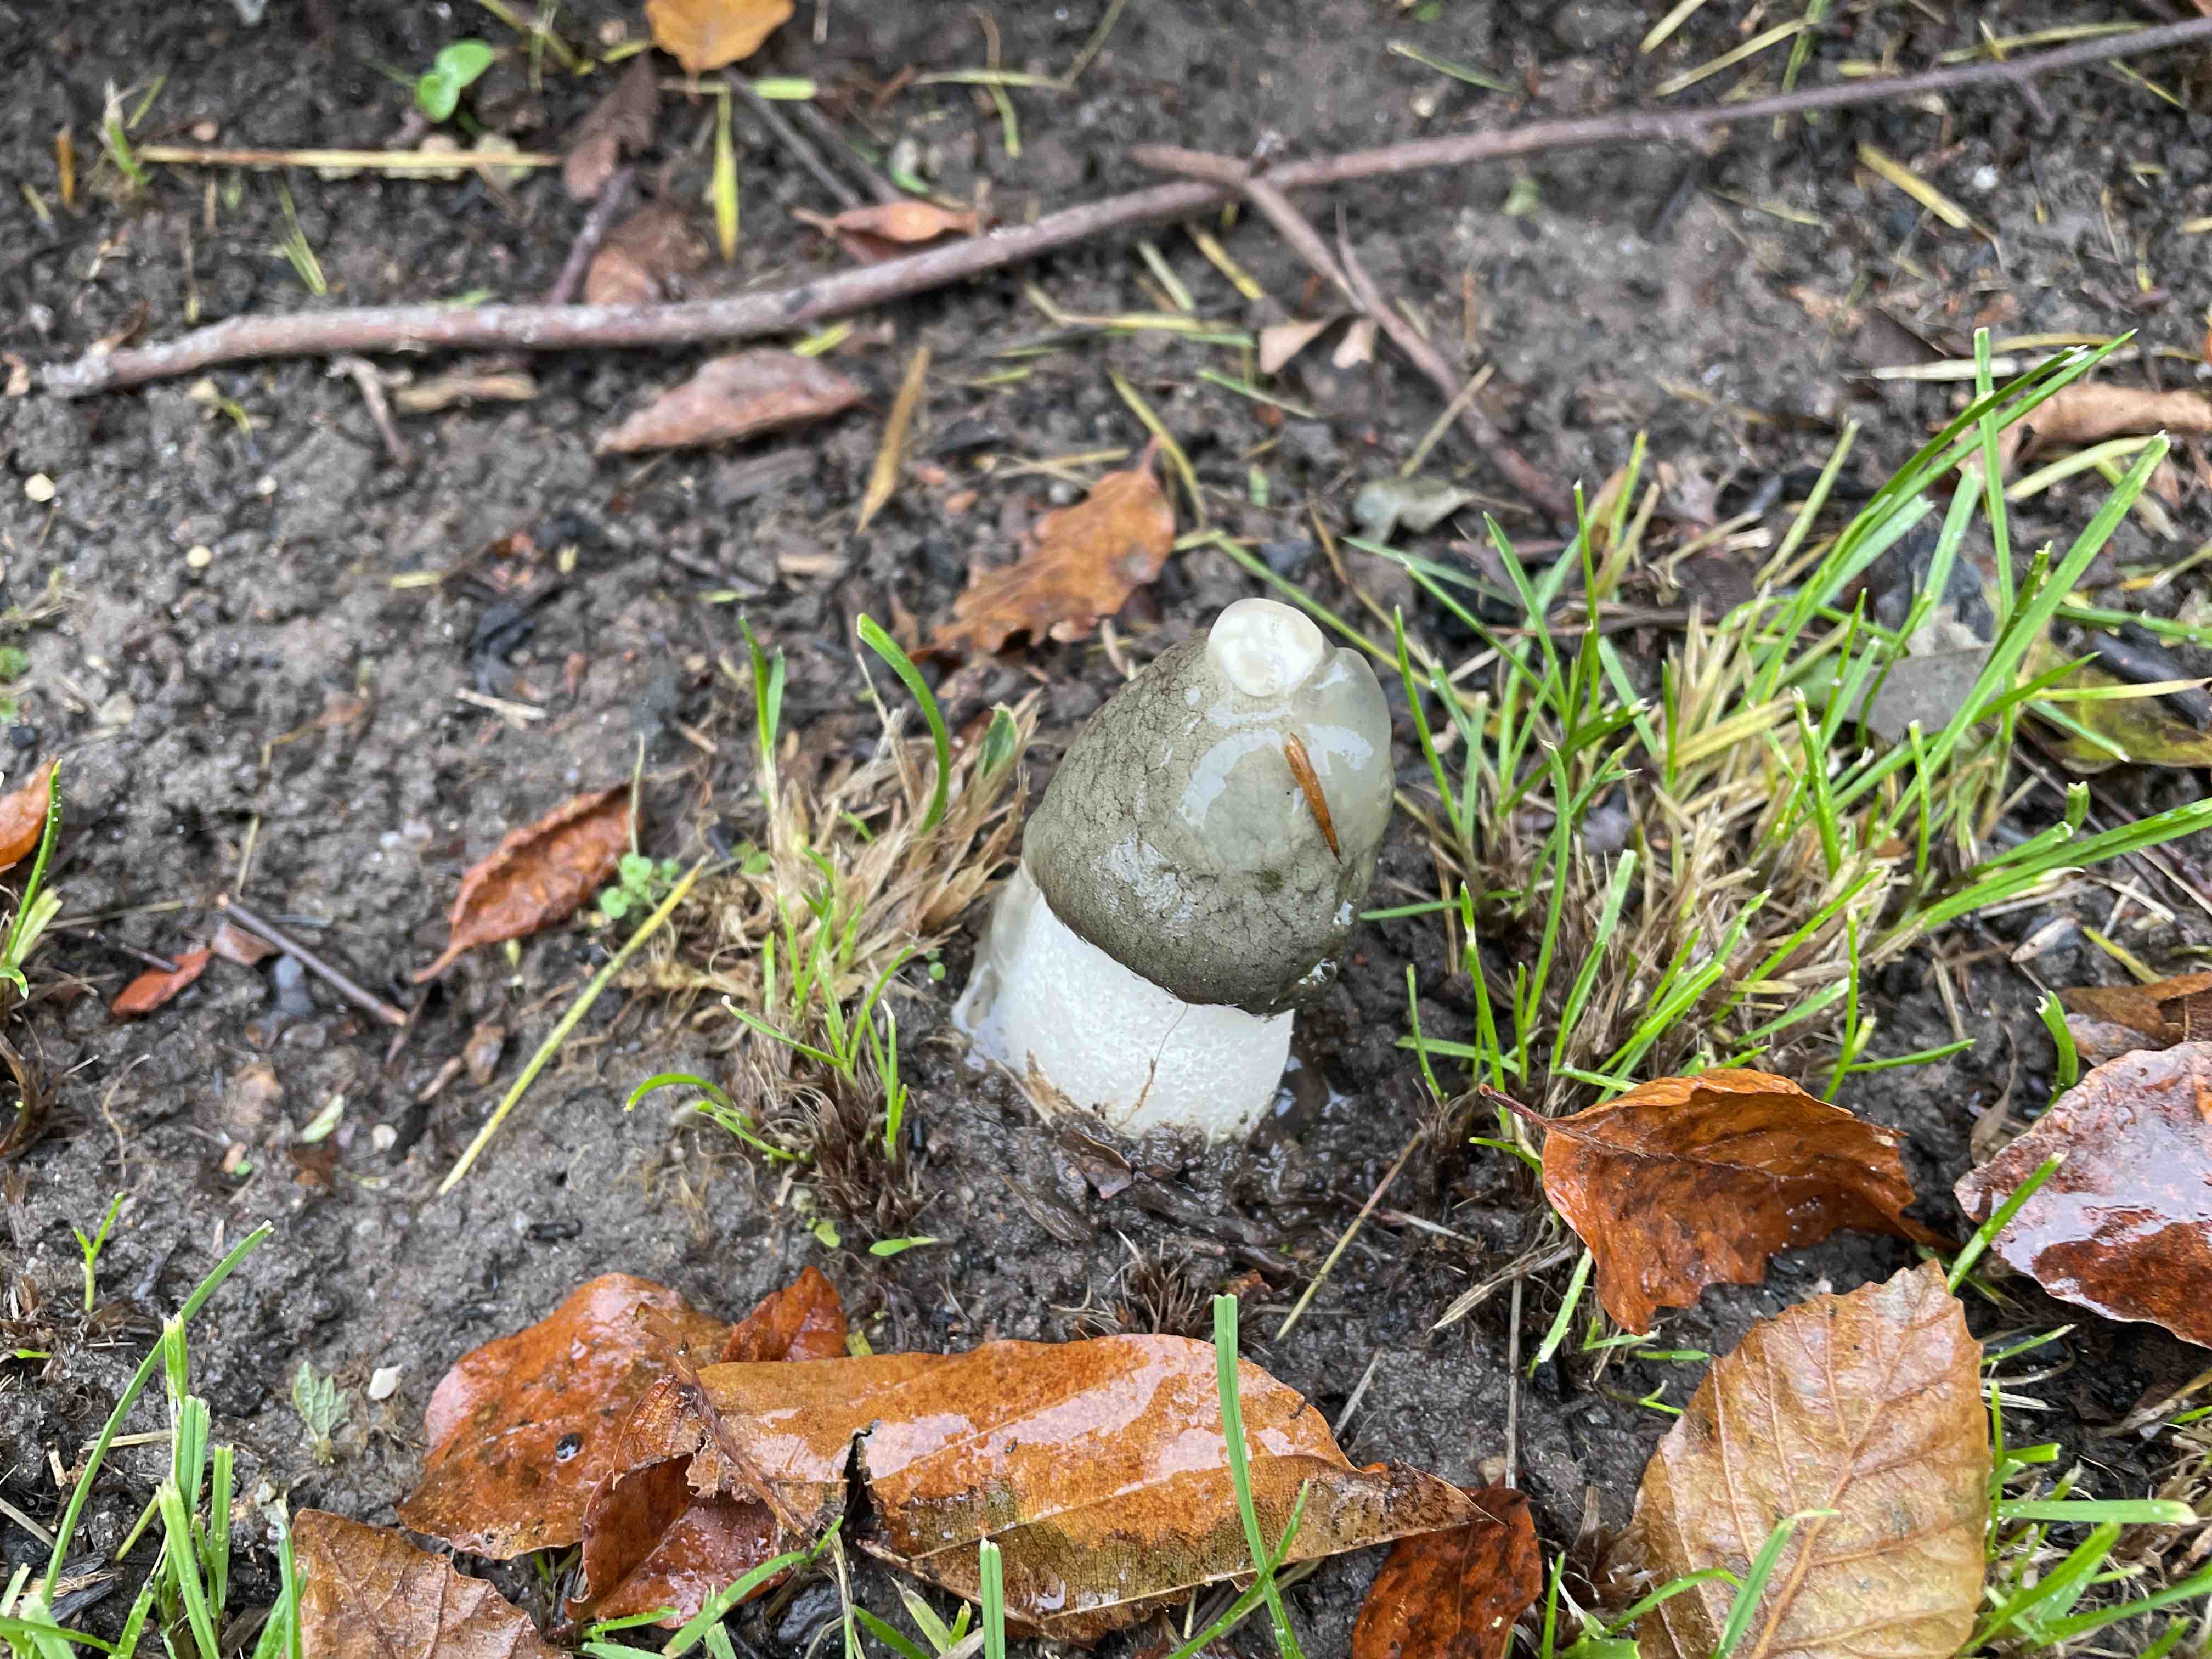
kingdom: Fungi
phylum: Basidiomycota
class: Agaricomycetes
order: Phallales
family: Phallaceae
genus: Phallus
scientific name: Phallus impudicus
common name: almindelig stinksvamp
